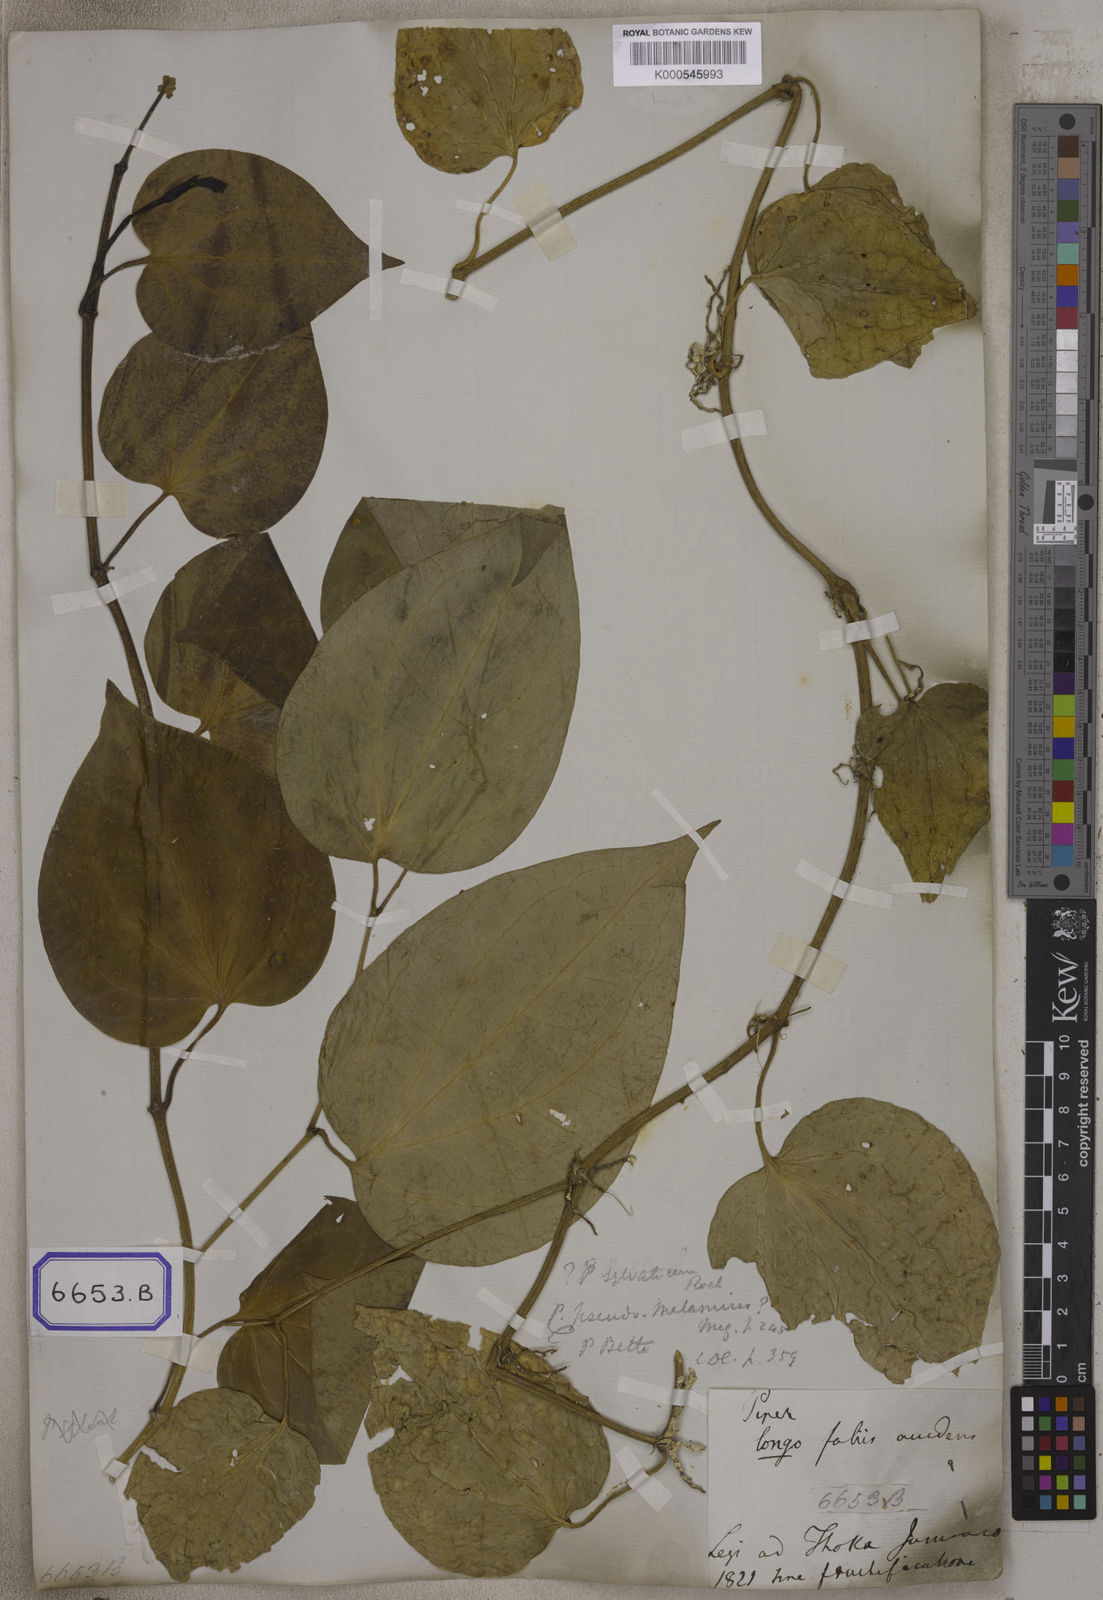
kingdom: Plantae
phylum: Tracheophyta
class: Magnoliopsida
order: Piperales
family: Piperaceae
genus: Piper
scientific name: Piper sylvaticum
